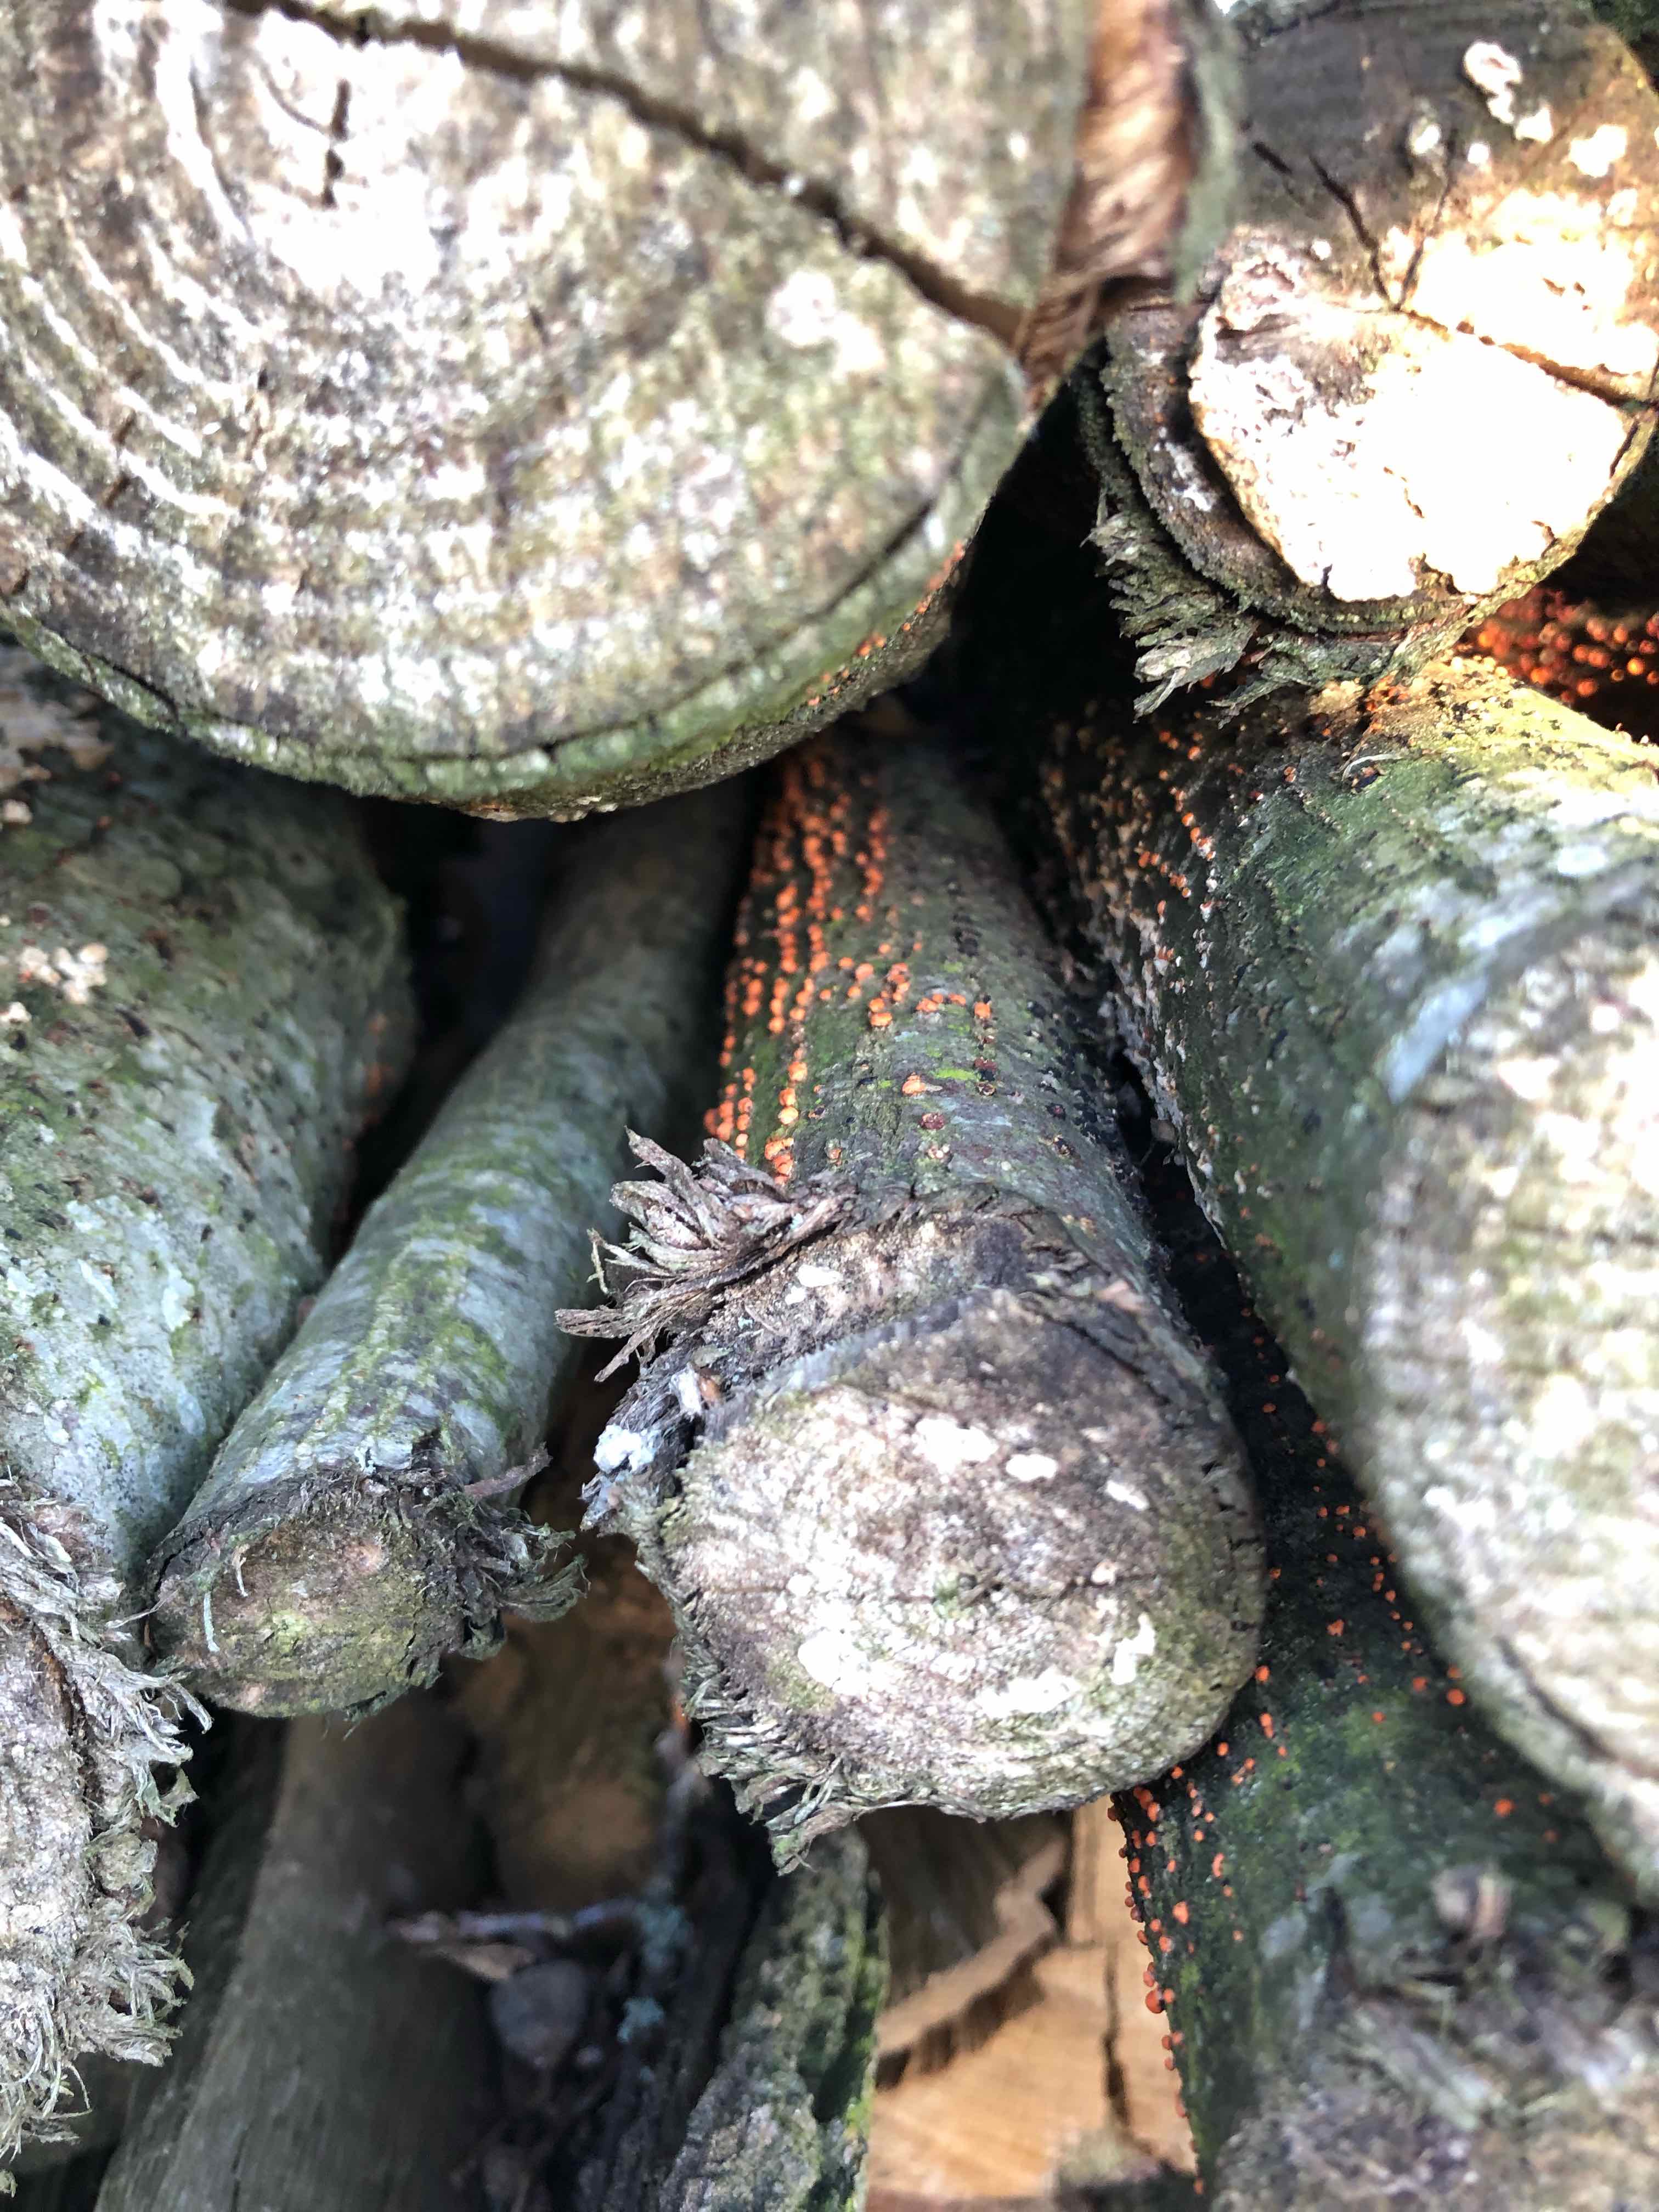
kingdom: Fungi
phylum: Ascomycota
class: Sordariomycetes
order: Hypocreales
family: Nectriaceae
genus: Nectria
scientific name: Nectria cinnabarina
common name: almindelig cinnobersvamp
